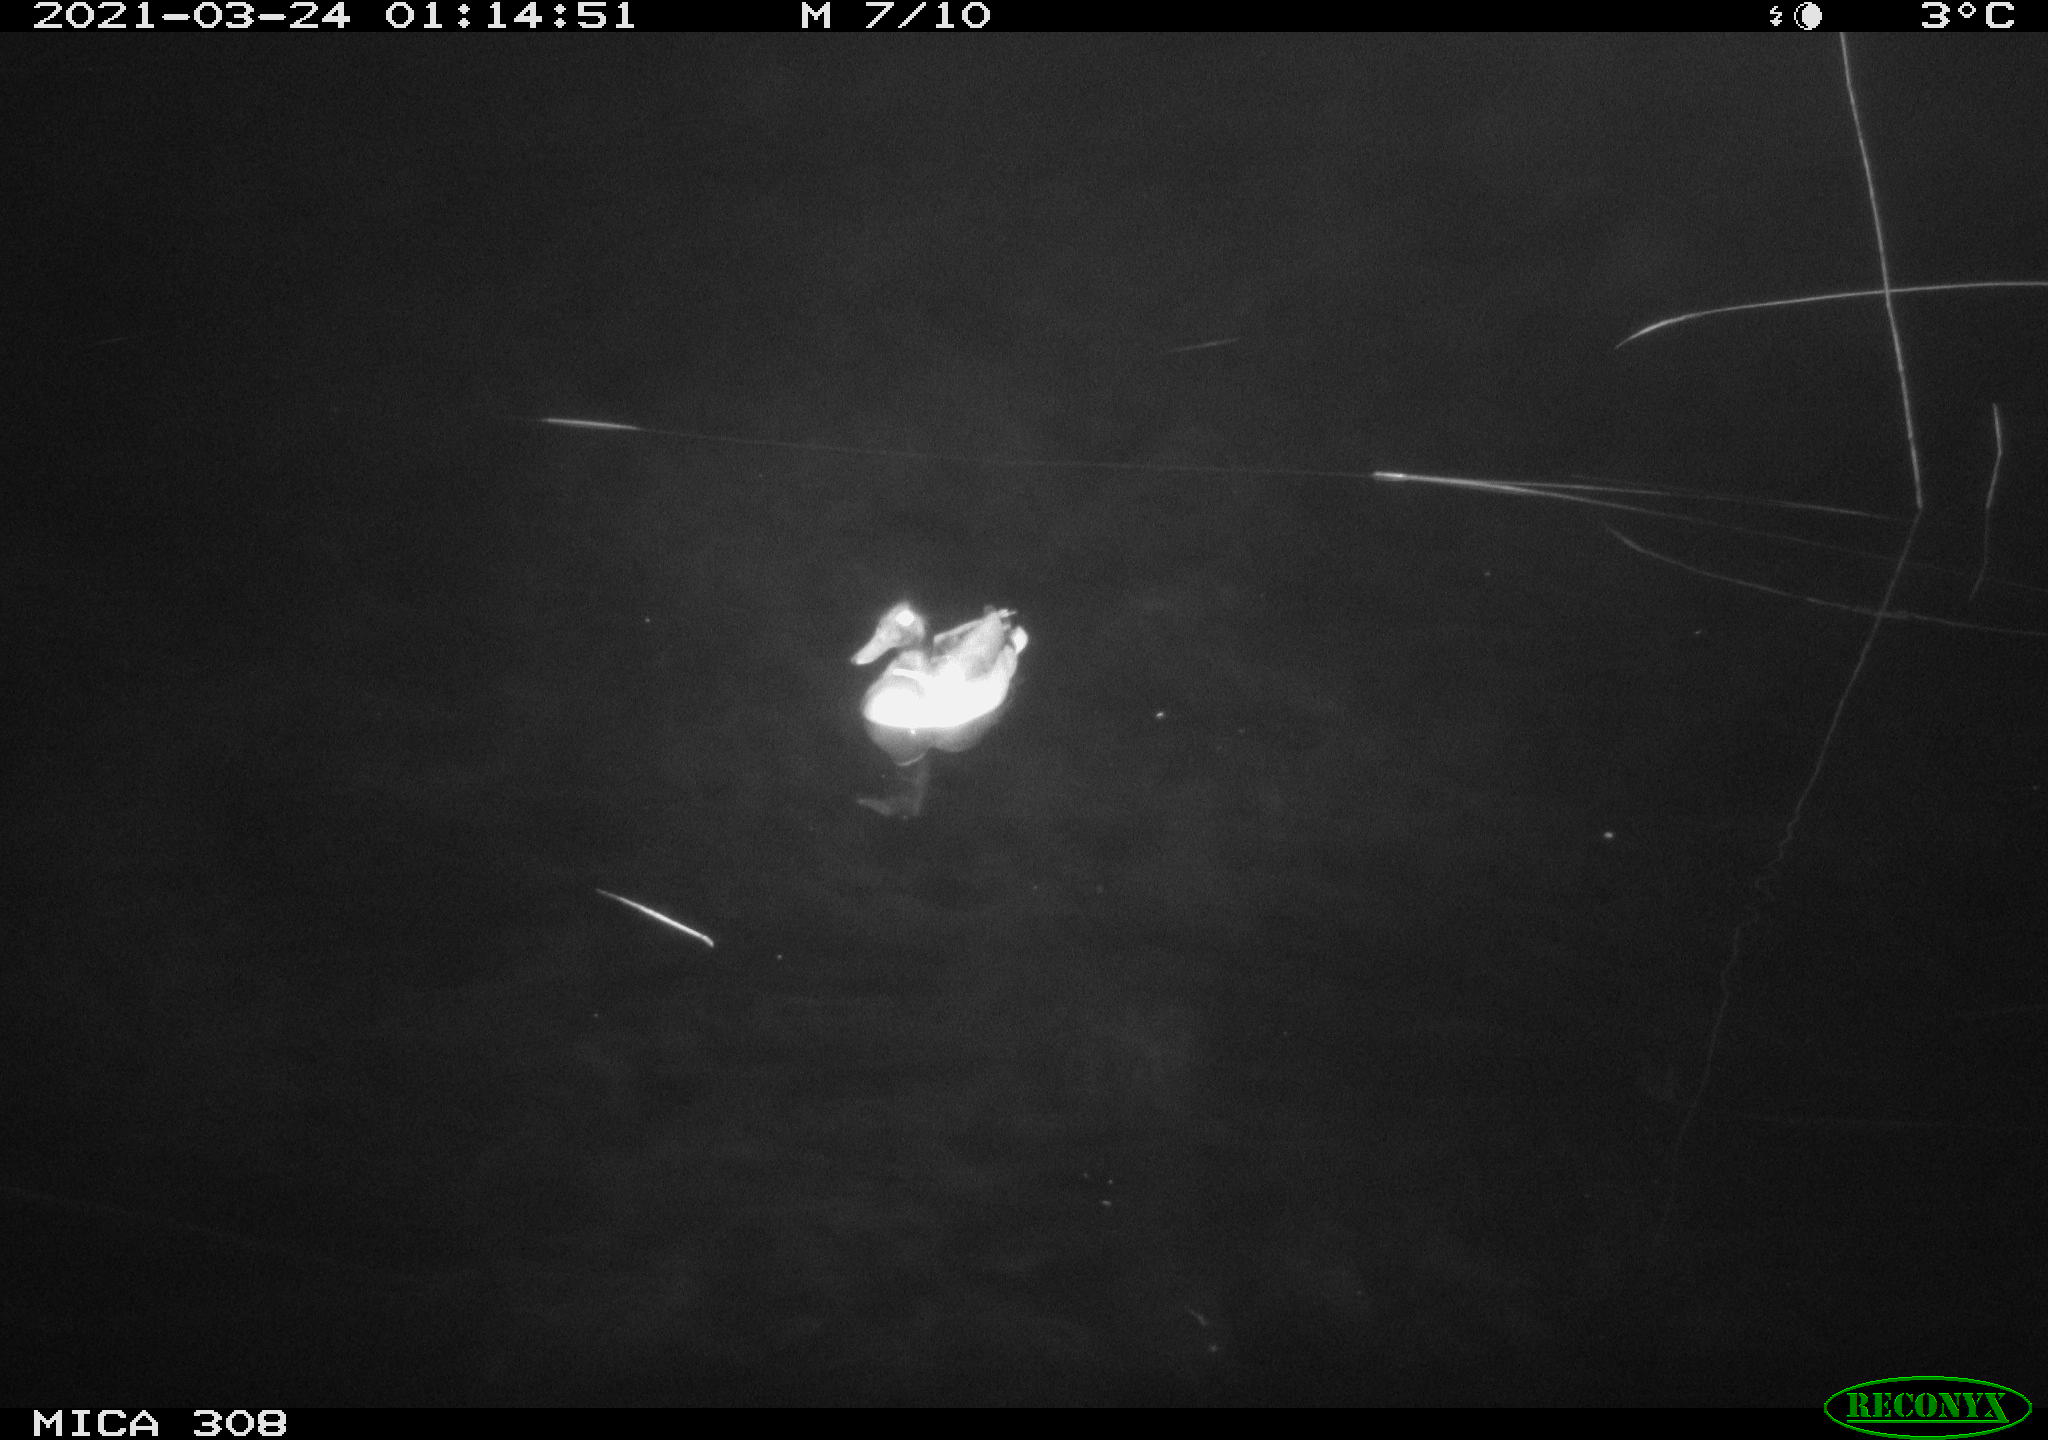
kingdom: Animalia
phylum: Chordata
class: Aves
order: Anseriformes
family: Anatidae
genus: Anas
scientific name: Anas platyrhynchos
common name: Mallard
